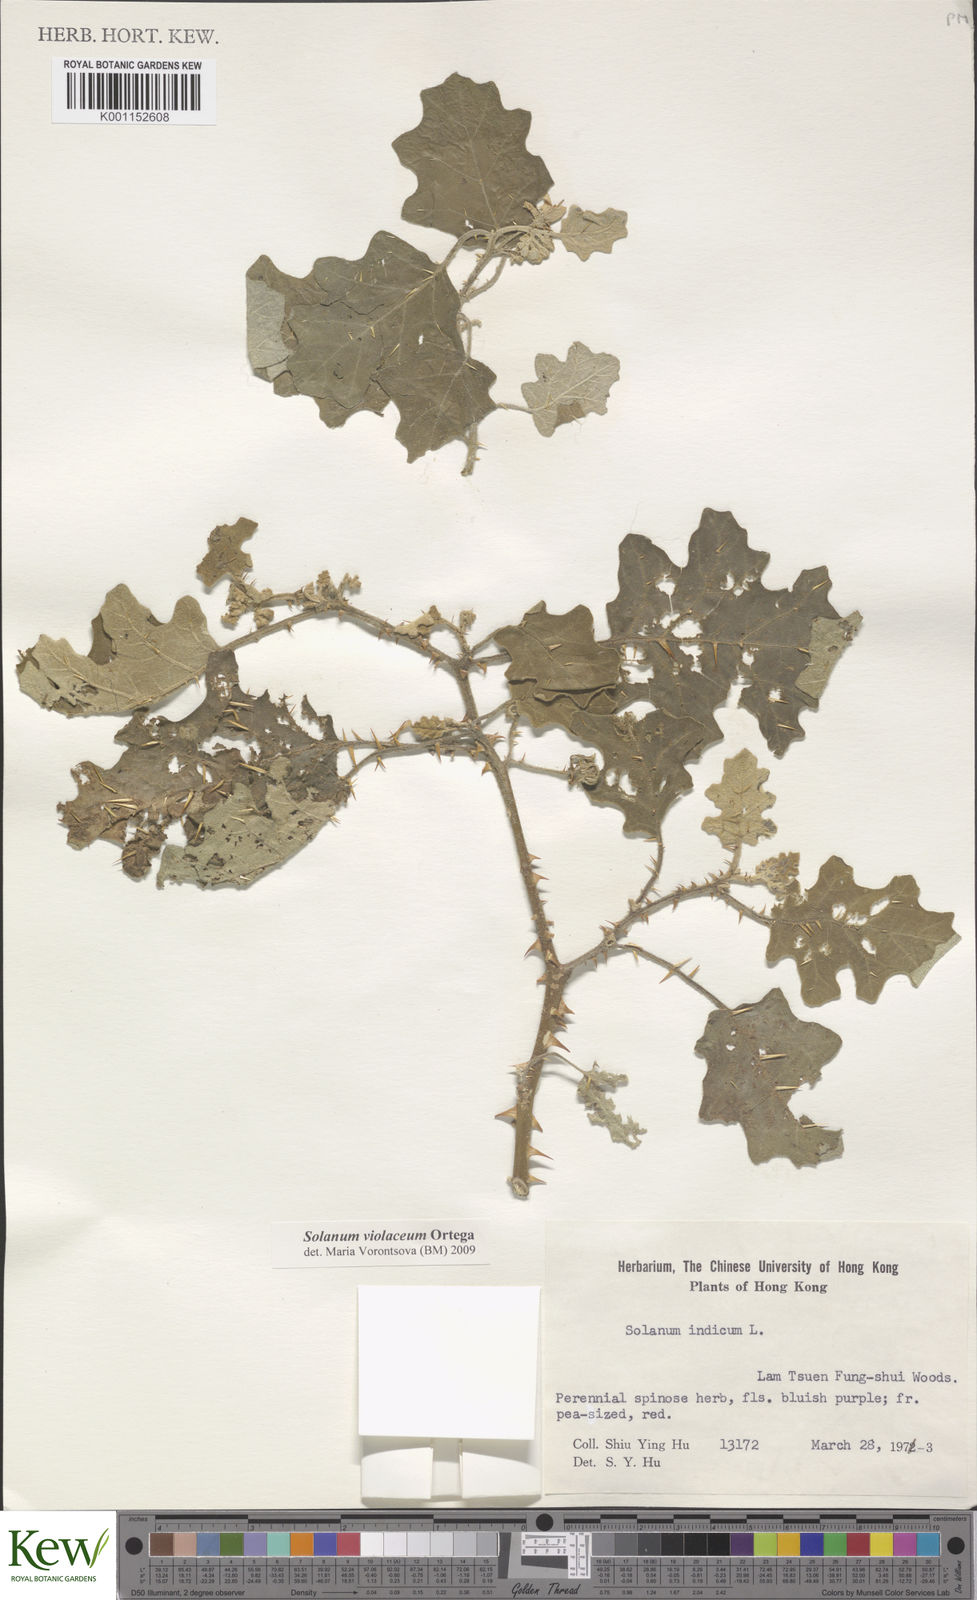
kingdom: Plantae
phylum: Tracheophyta
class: Magnoliopsida
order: Solanales
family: Solanaceae
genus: Solanum
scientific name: Solanum violaceum
